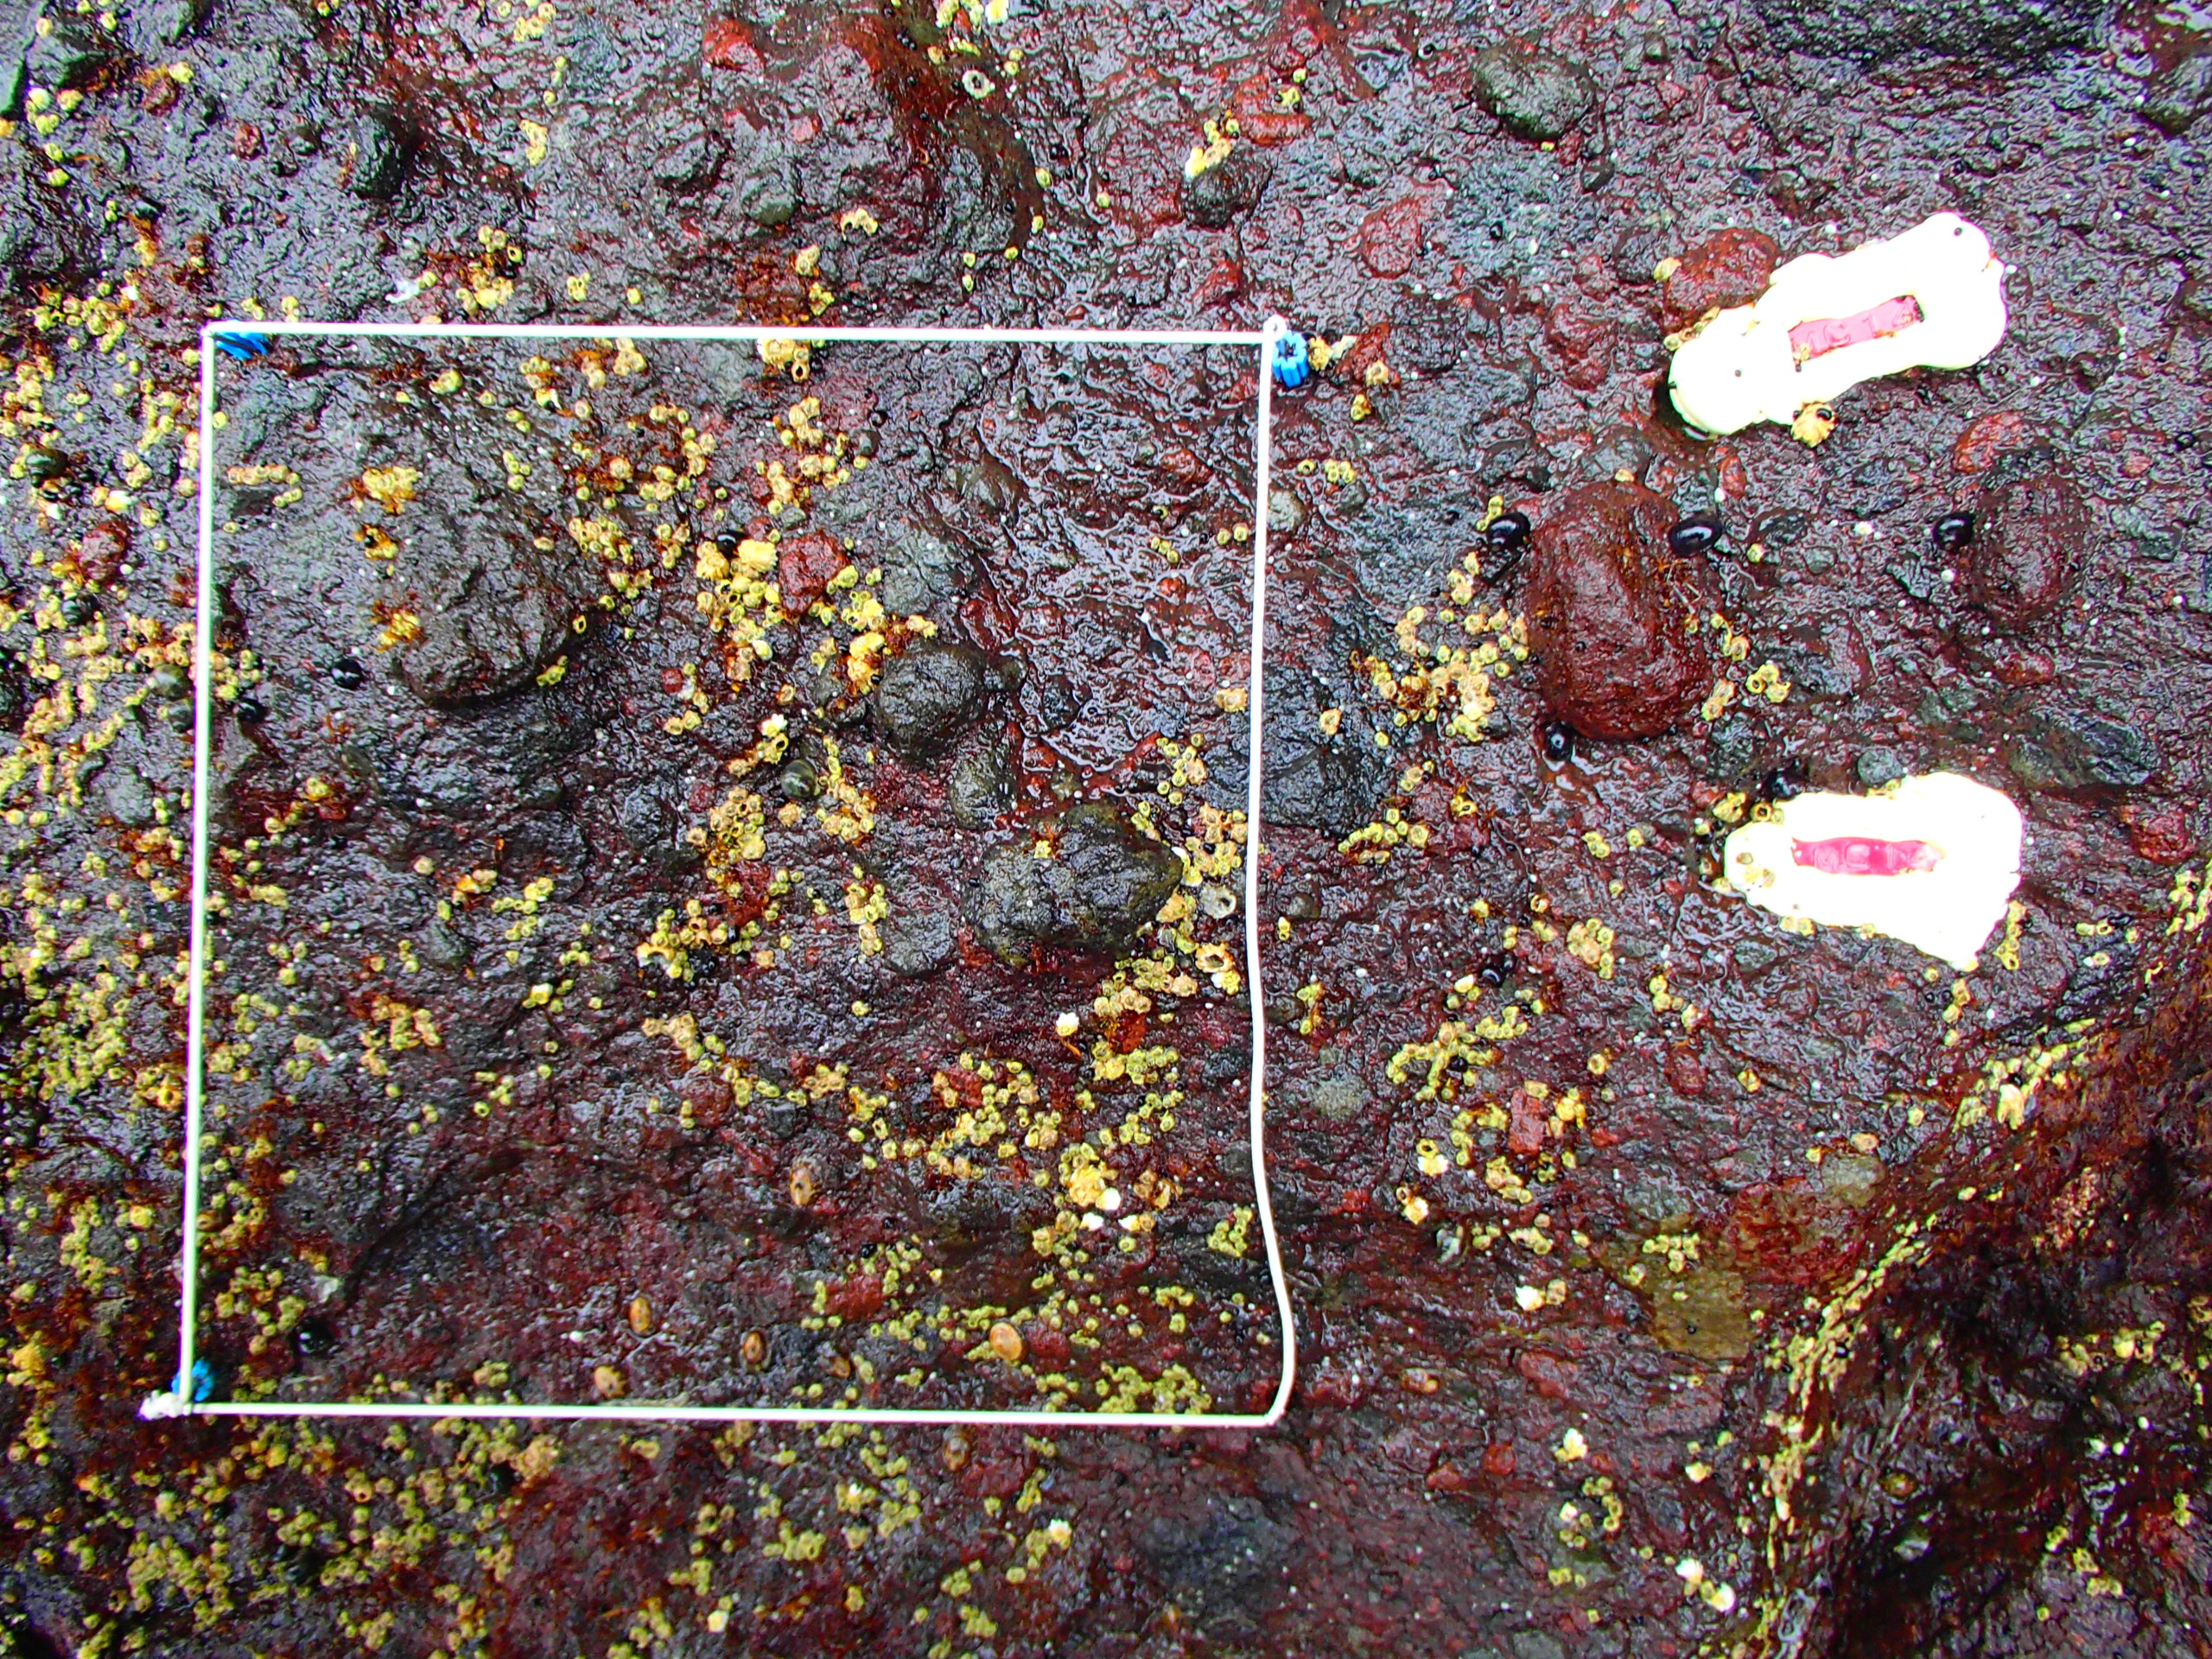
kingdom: Plantae
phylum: Rhodophyta
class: Florideophyceae
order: Gigartinales
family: Endocladiaceae
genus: Gloiopeltis
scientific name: Gloiopeltis furcata
